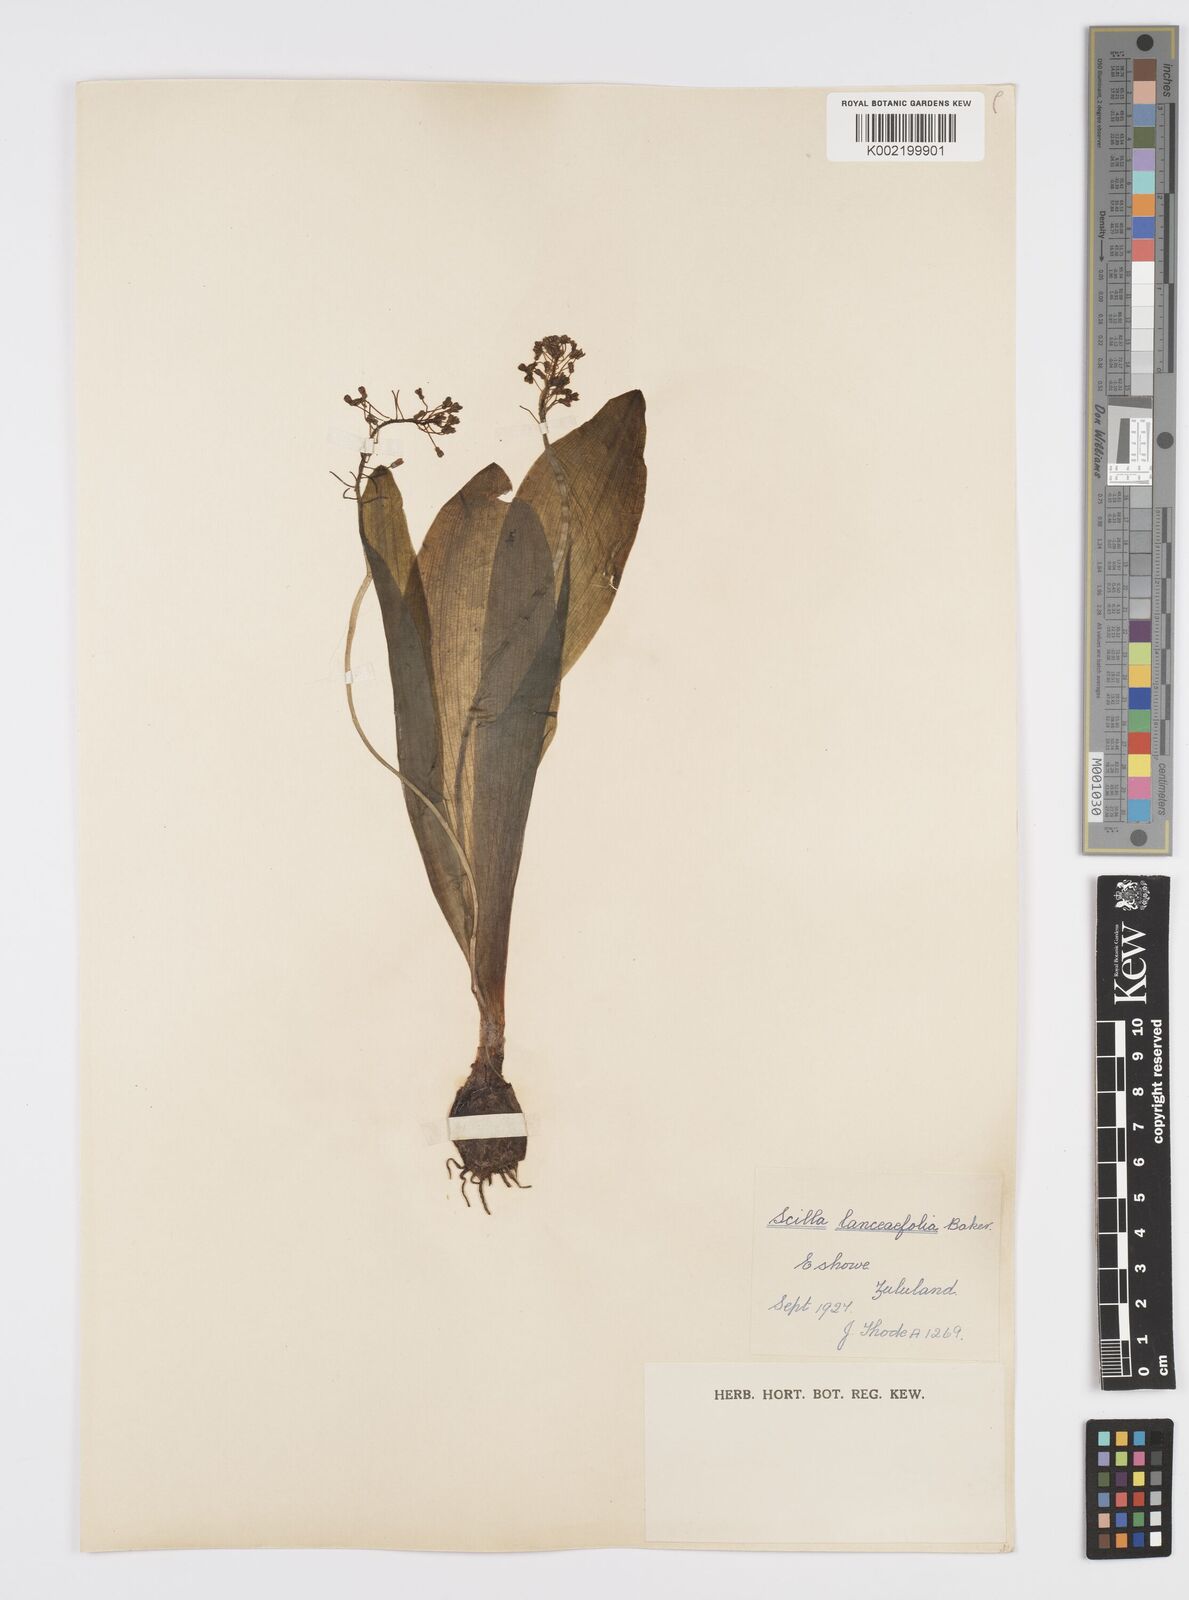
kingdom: Plantae
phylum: Tracheophyta
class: Liliopsida
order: Asparagales
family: Asparagaceae
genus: Ledebouria
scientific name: Ledebouria revoluta
